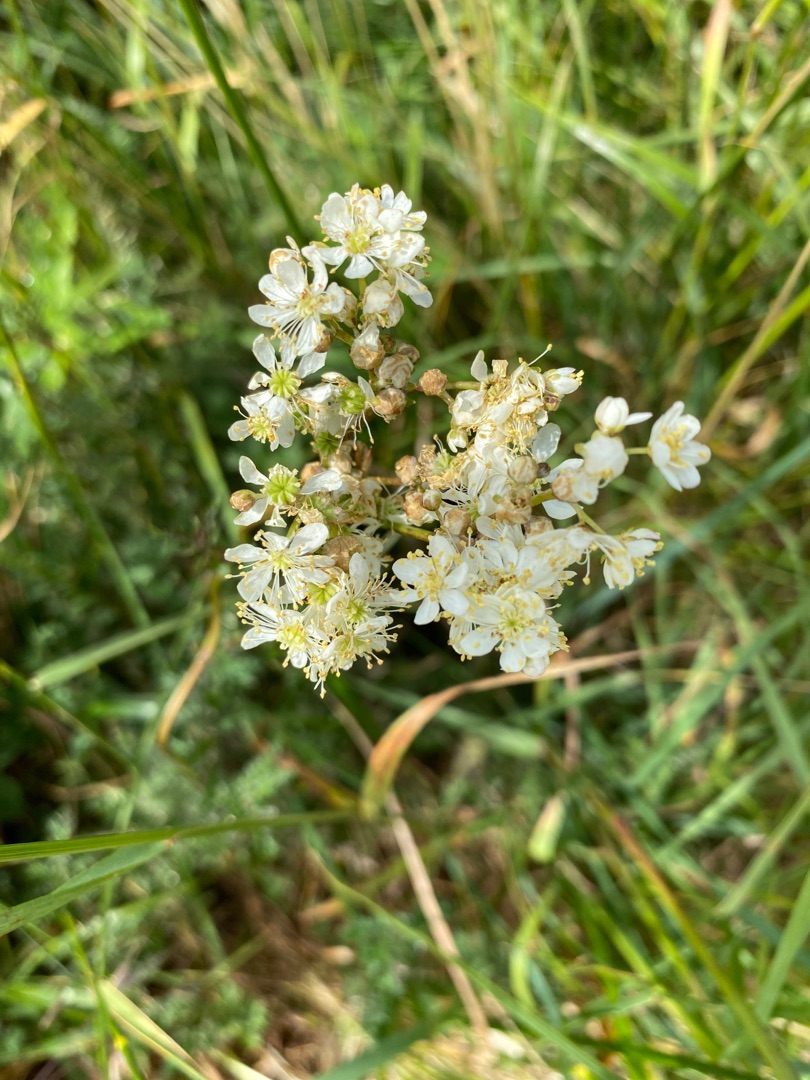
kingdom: Plantae
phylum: Tracheophyta
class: Magnoliopsida
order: Rosales
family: Rosaceae
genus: Filipendula
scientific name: Filipendula vulgaris
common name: Knoldet mjødurt
